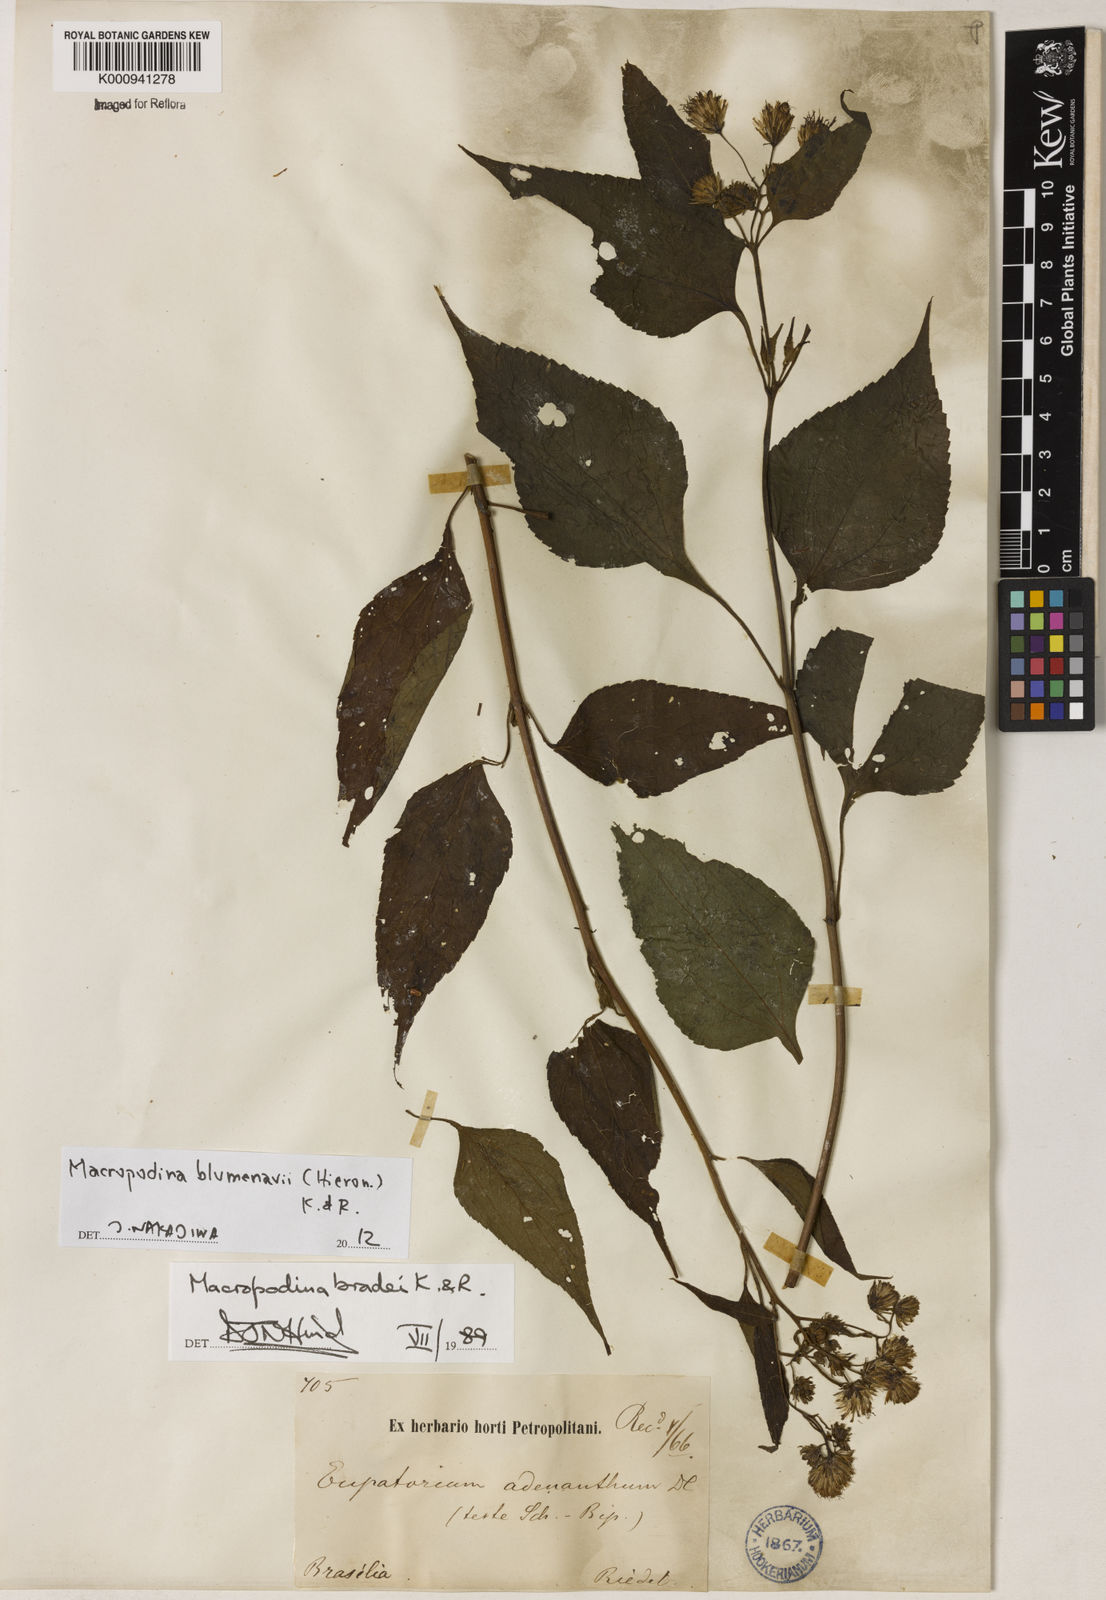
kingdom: Plantae
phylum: Tracheophyta
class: Magnoliopsida
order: Asterales
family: Asteraceae
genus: Macropodina
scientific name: Macropodina bradei
